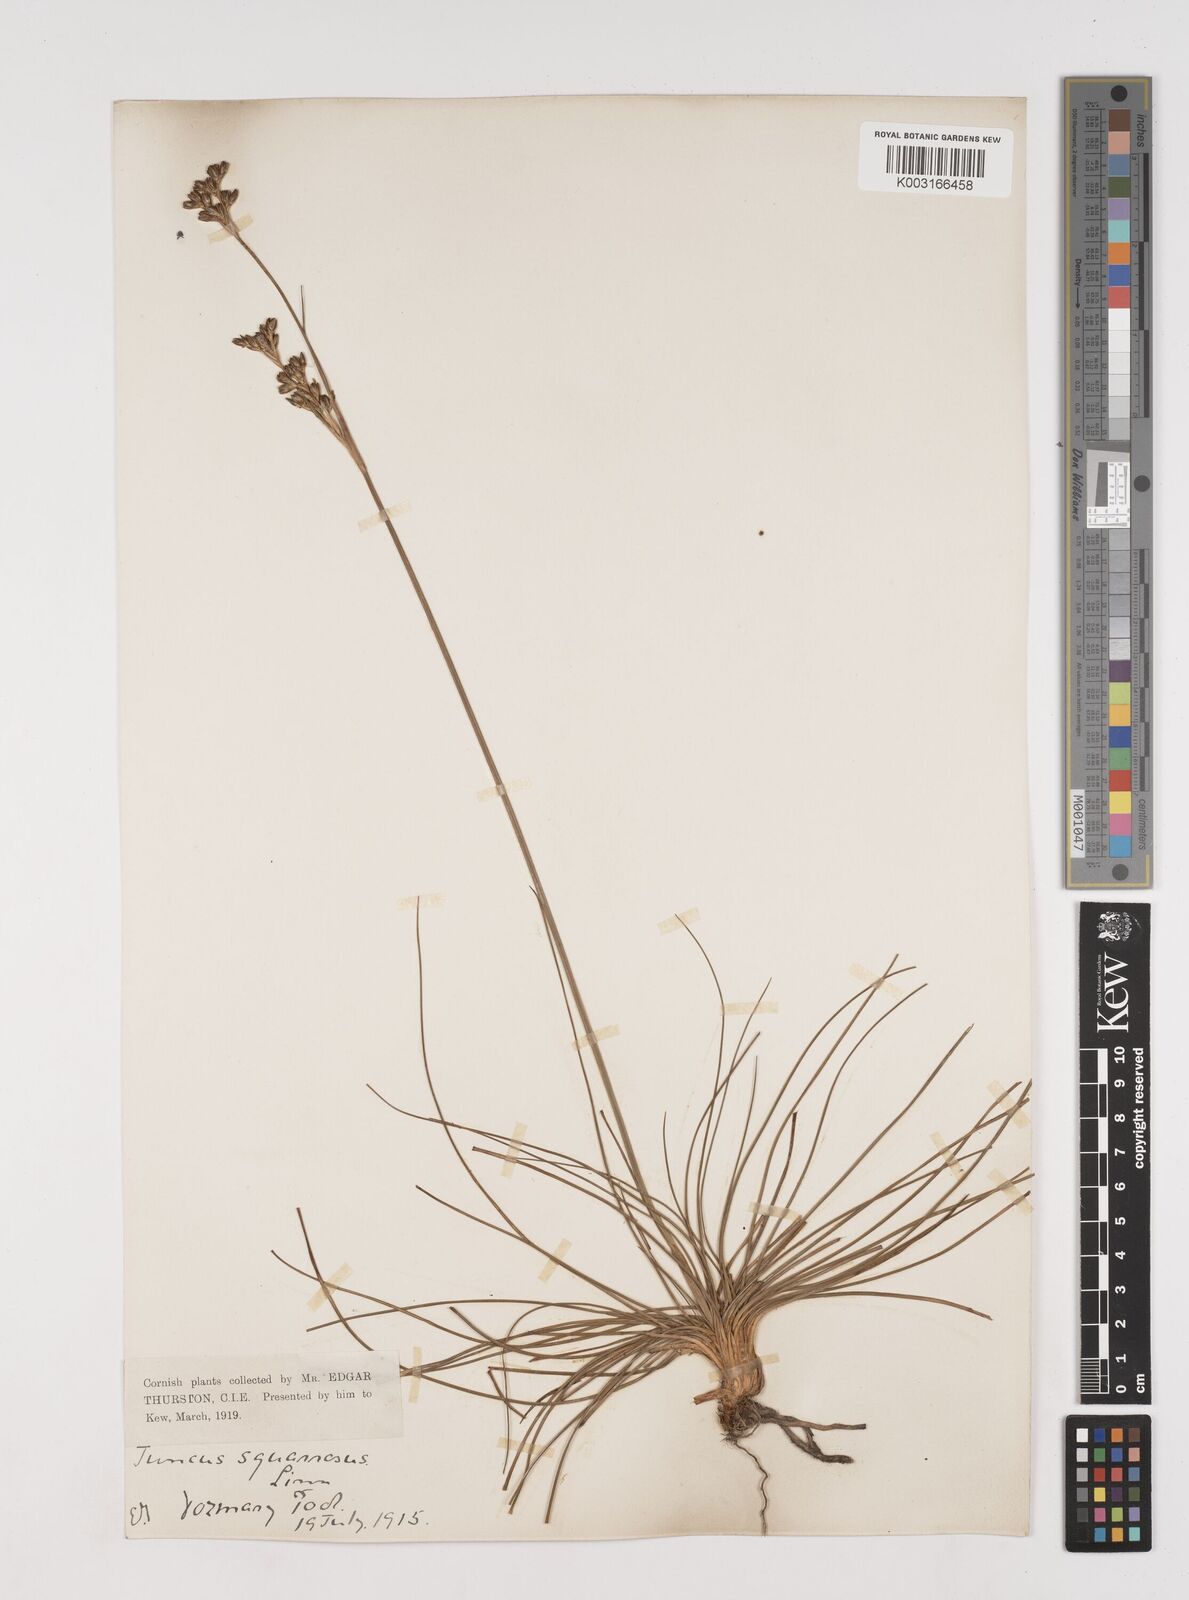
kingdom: Plantae
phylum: Tracheophyta
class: Liliopsida
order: Poales
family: Juncaceae
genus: Juncus
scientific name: Juncus squarrosus
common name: Heath rush
